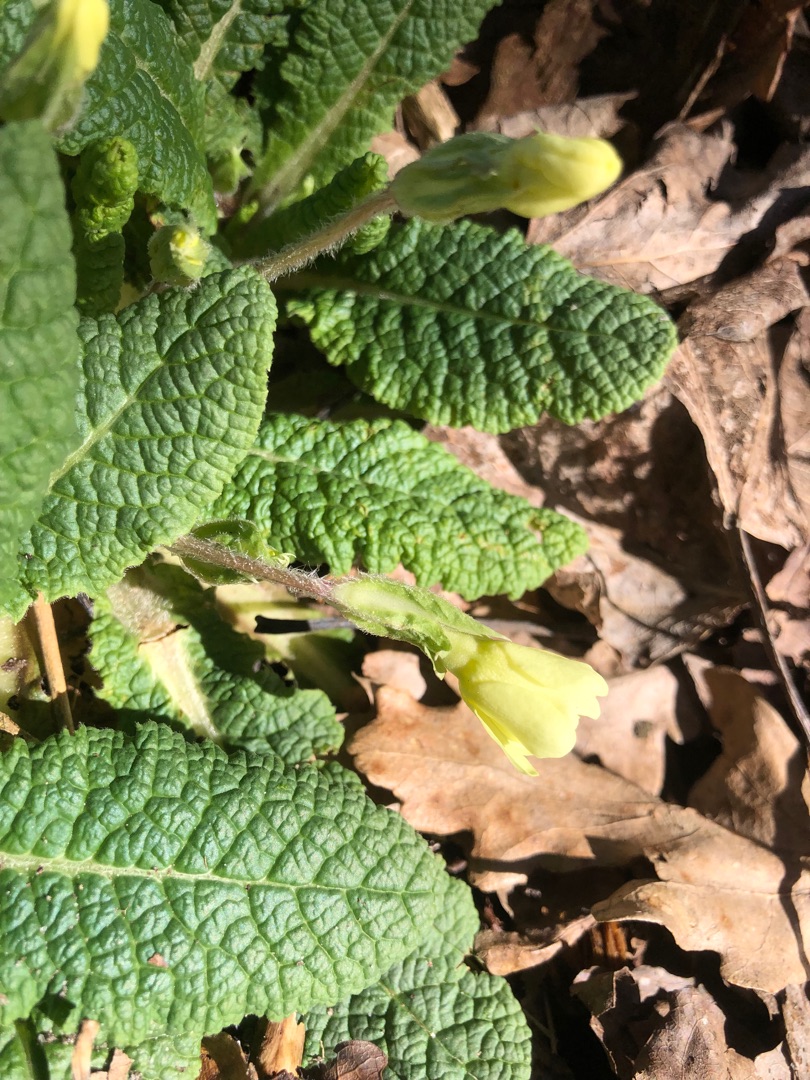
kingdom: Plantae
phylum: Tracheophyta
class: Magnoliopsida
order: Ericales
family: Primulaceae
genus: Primula
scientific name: Primula vulgaris
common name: Storblomstret kodriver
